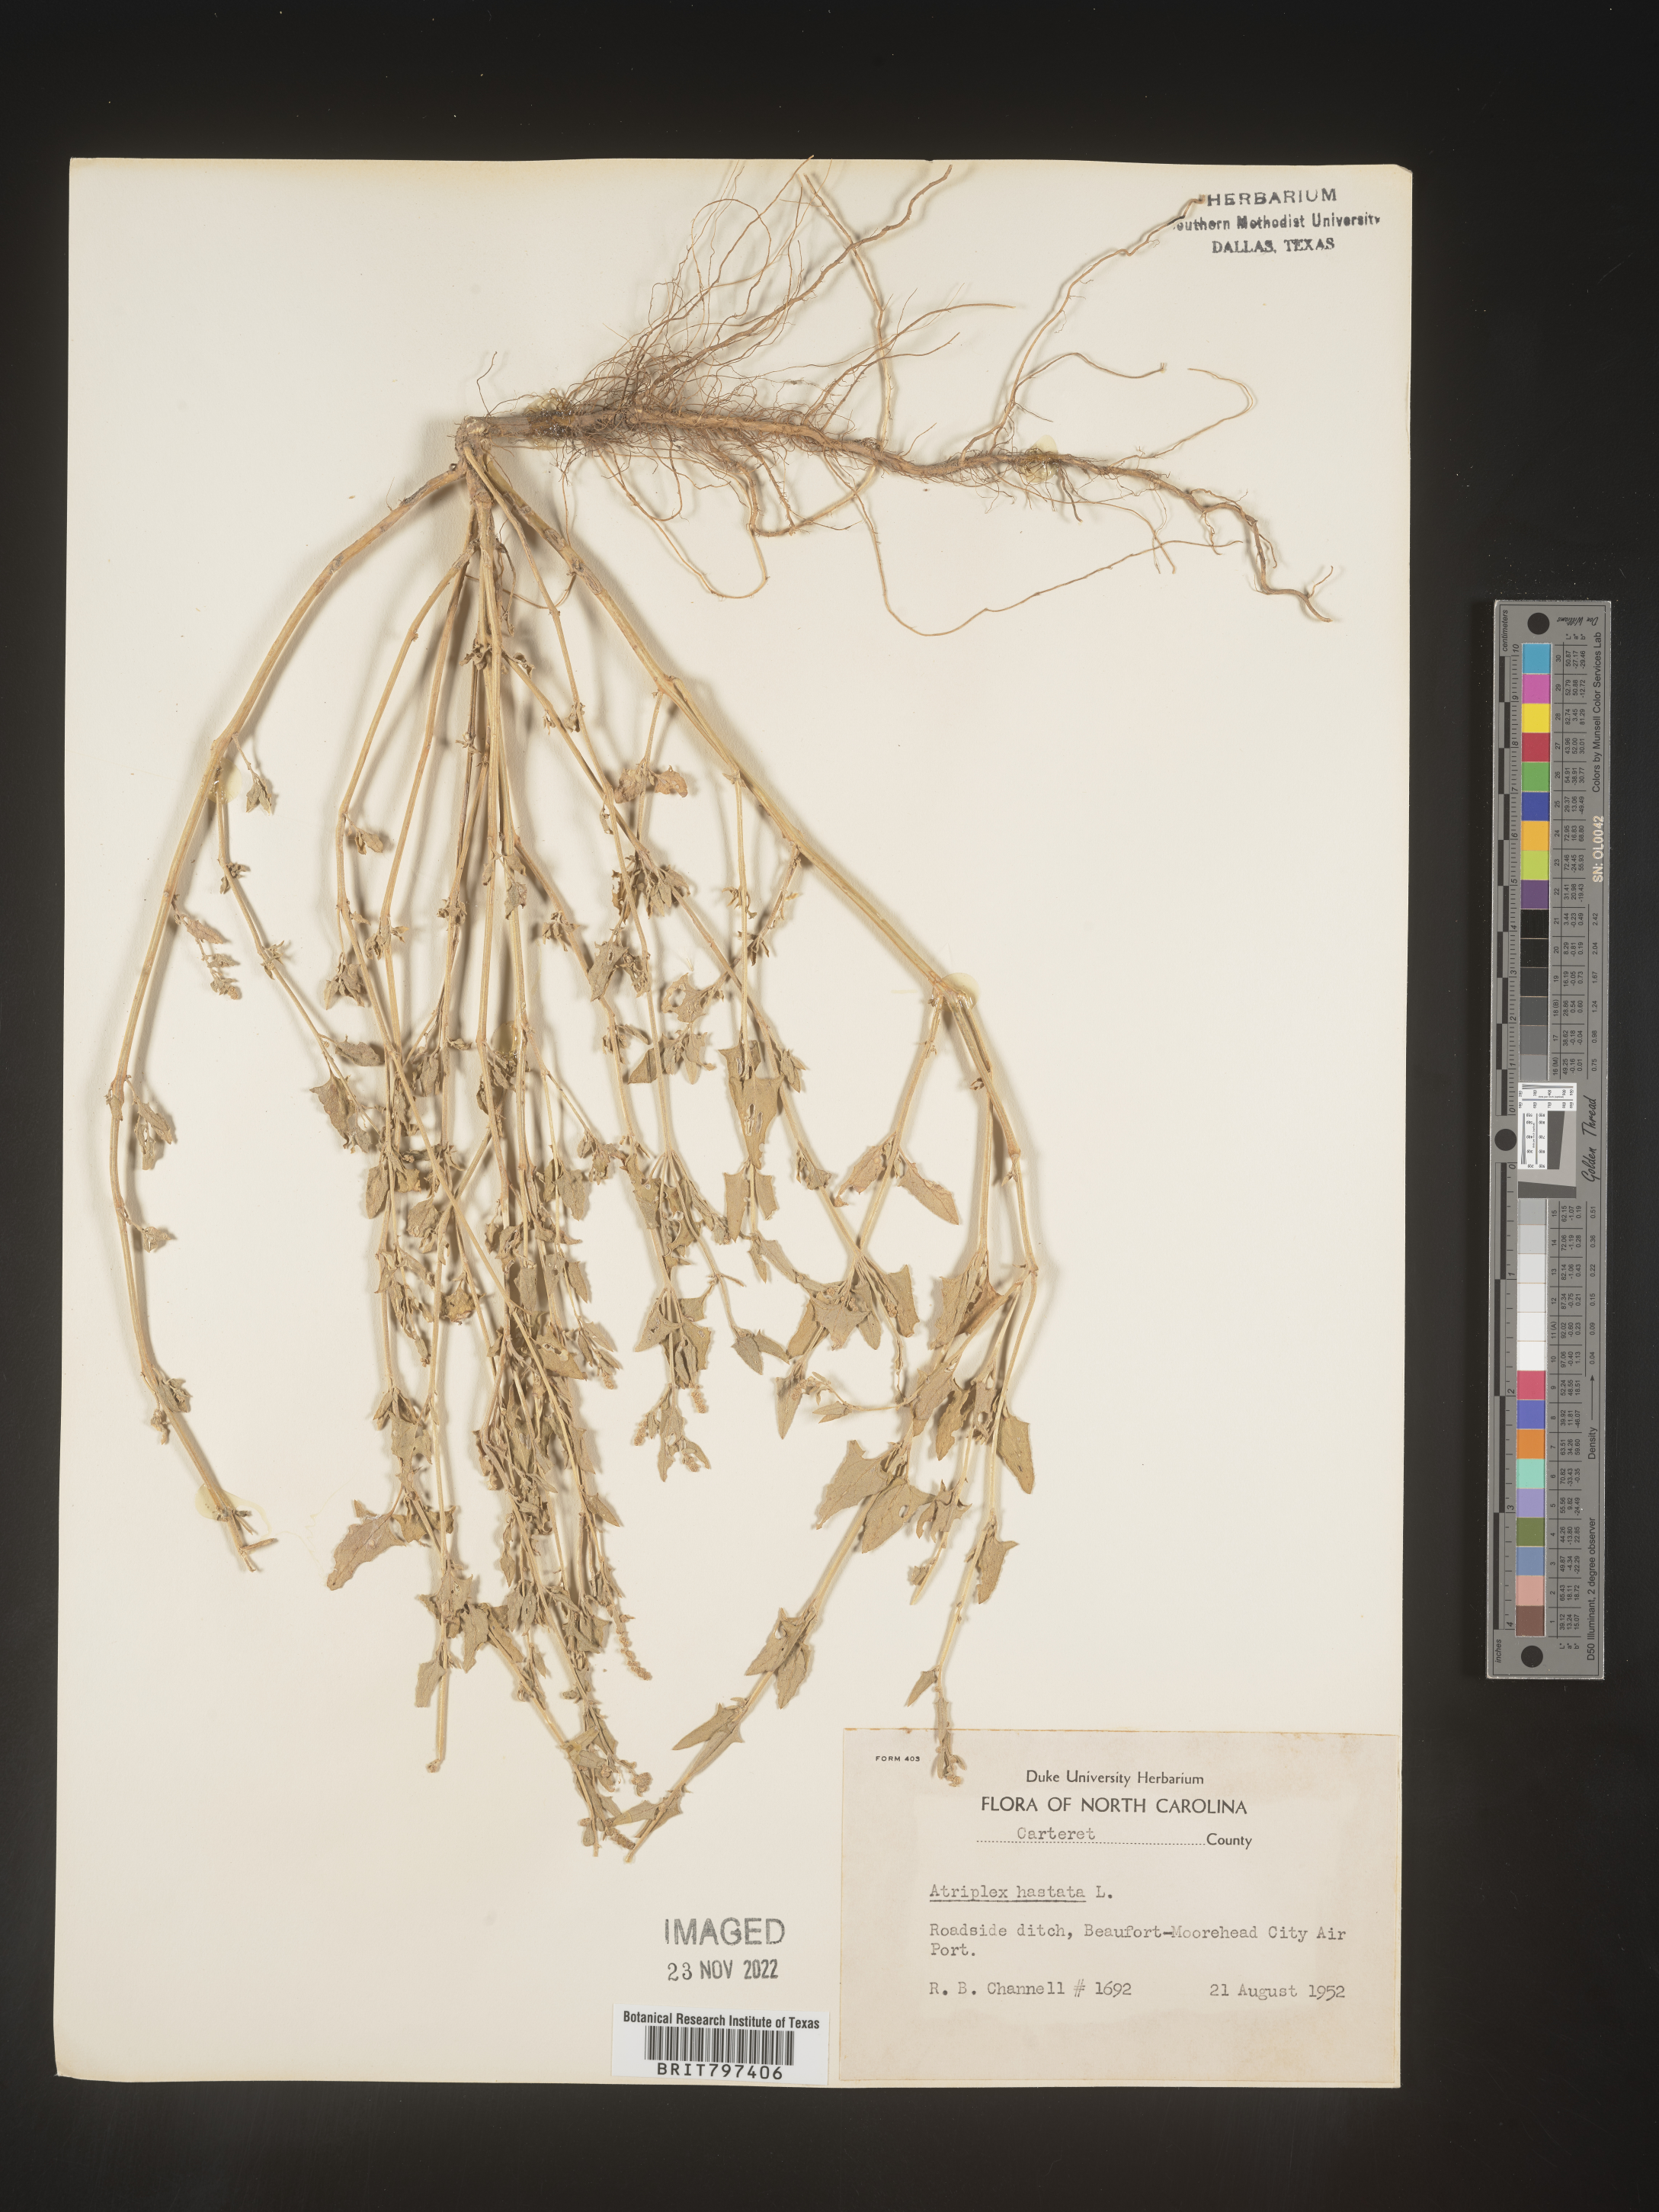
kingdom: Plantae
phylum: Tracheophyta
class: Magnoliopsida
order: Caryophyllales
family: Amaranthaceae
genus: Atriplex
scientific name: Atriplex prostrata
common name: Spear-leaved orache
